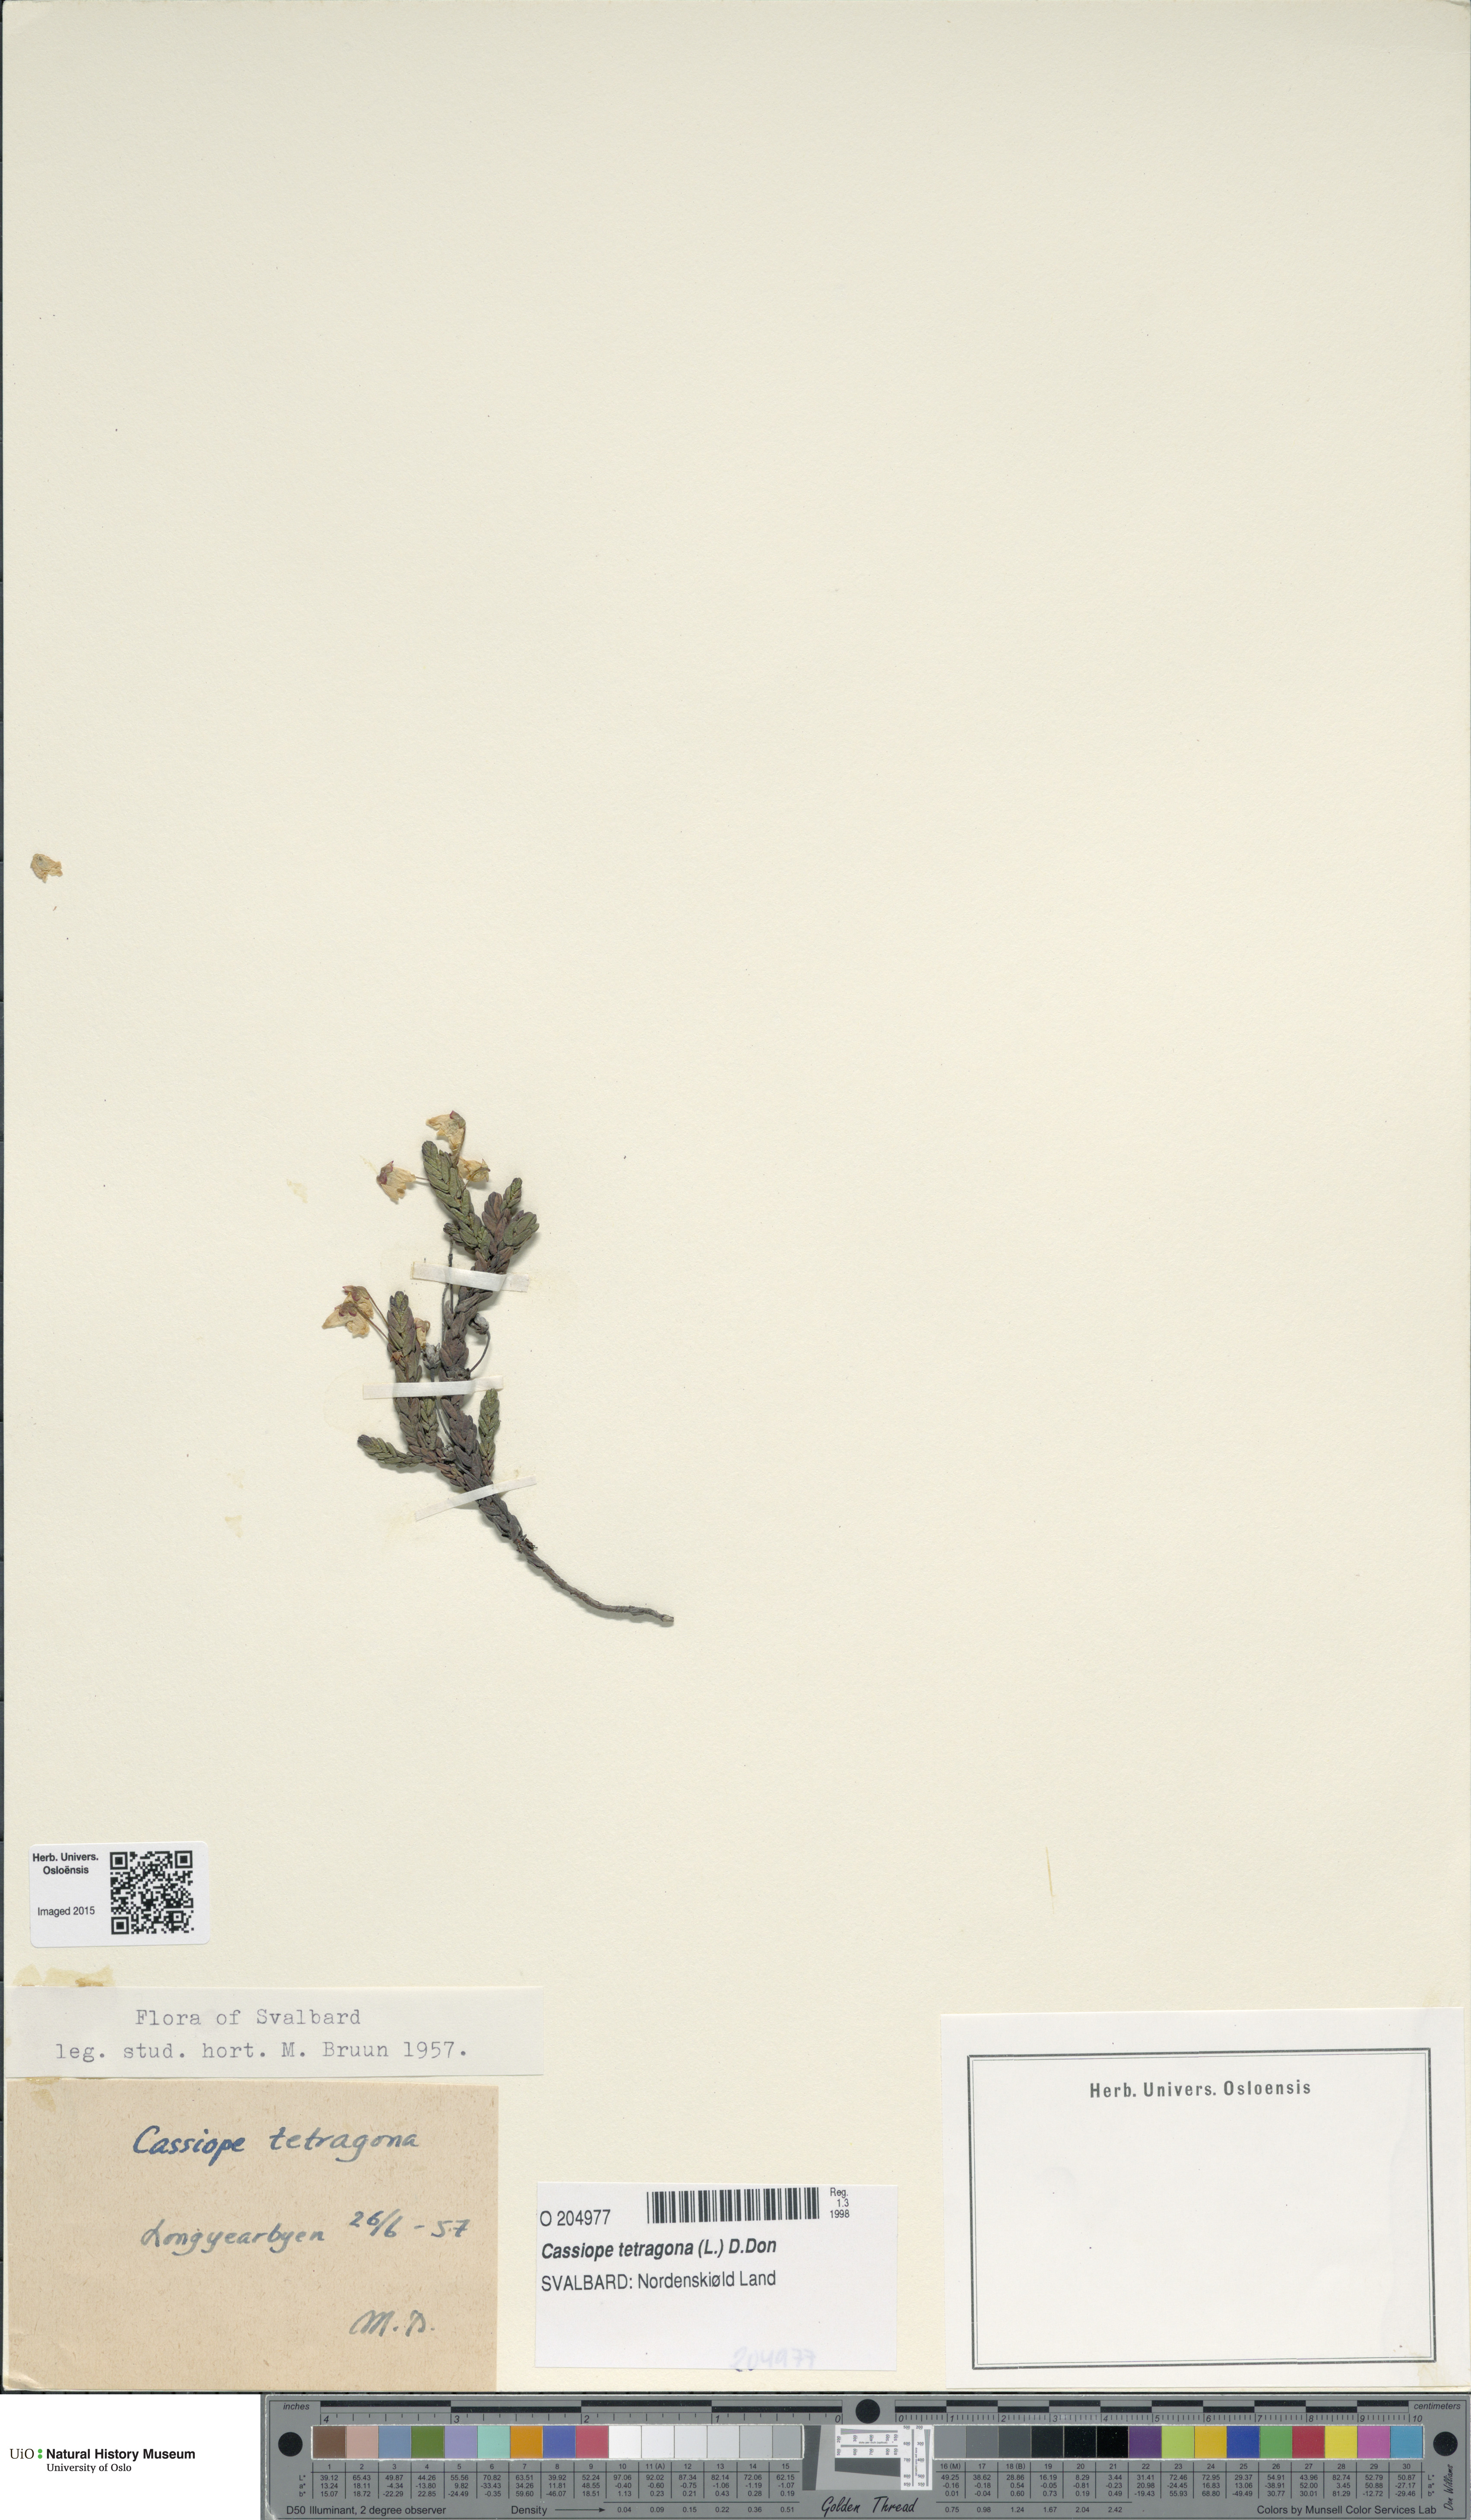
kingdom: Plantae
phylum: Tracheophyta
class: Magnoliopsida
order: Ericales
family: Ericaceae
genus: Cassiope
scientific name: Cassiope tetragona
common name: Arctic bell heather
